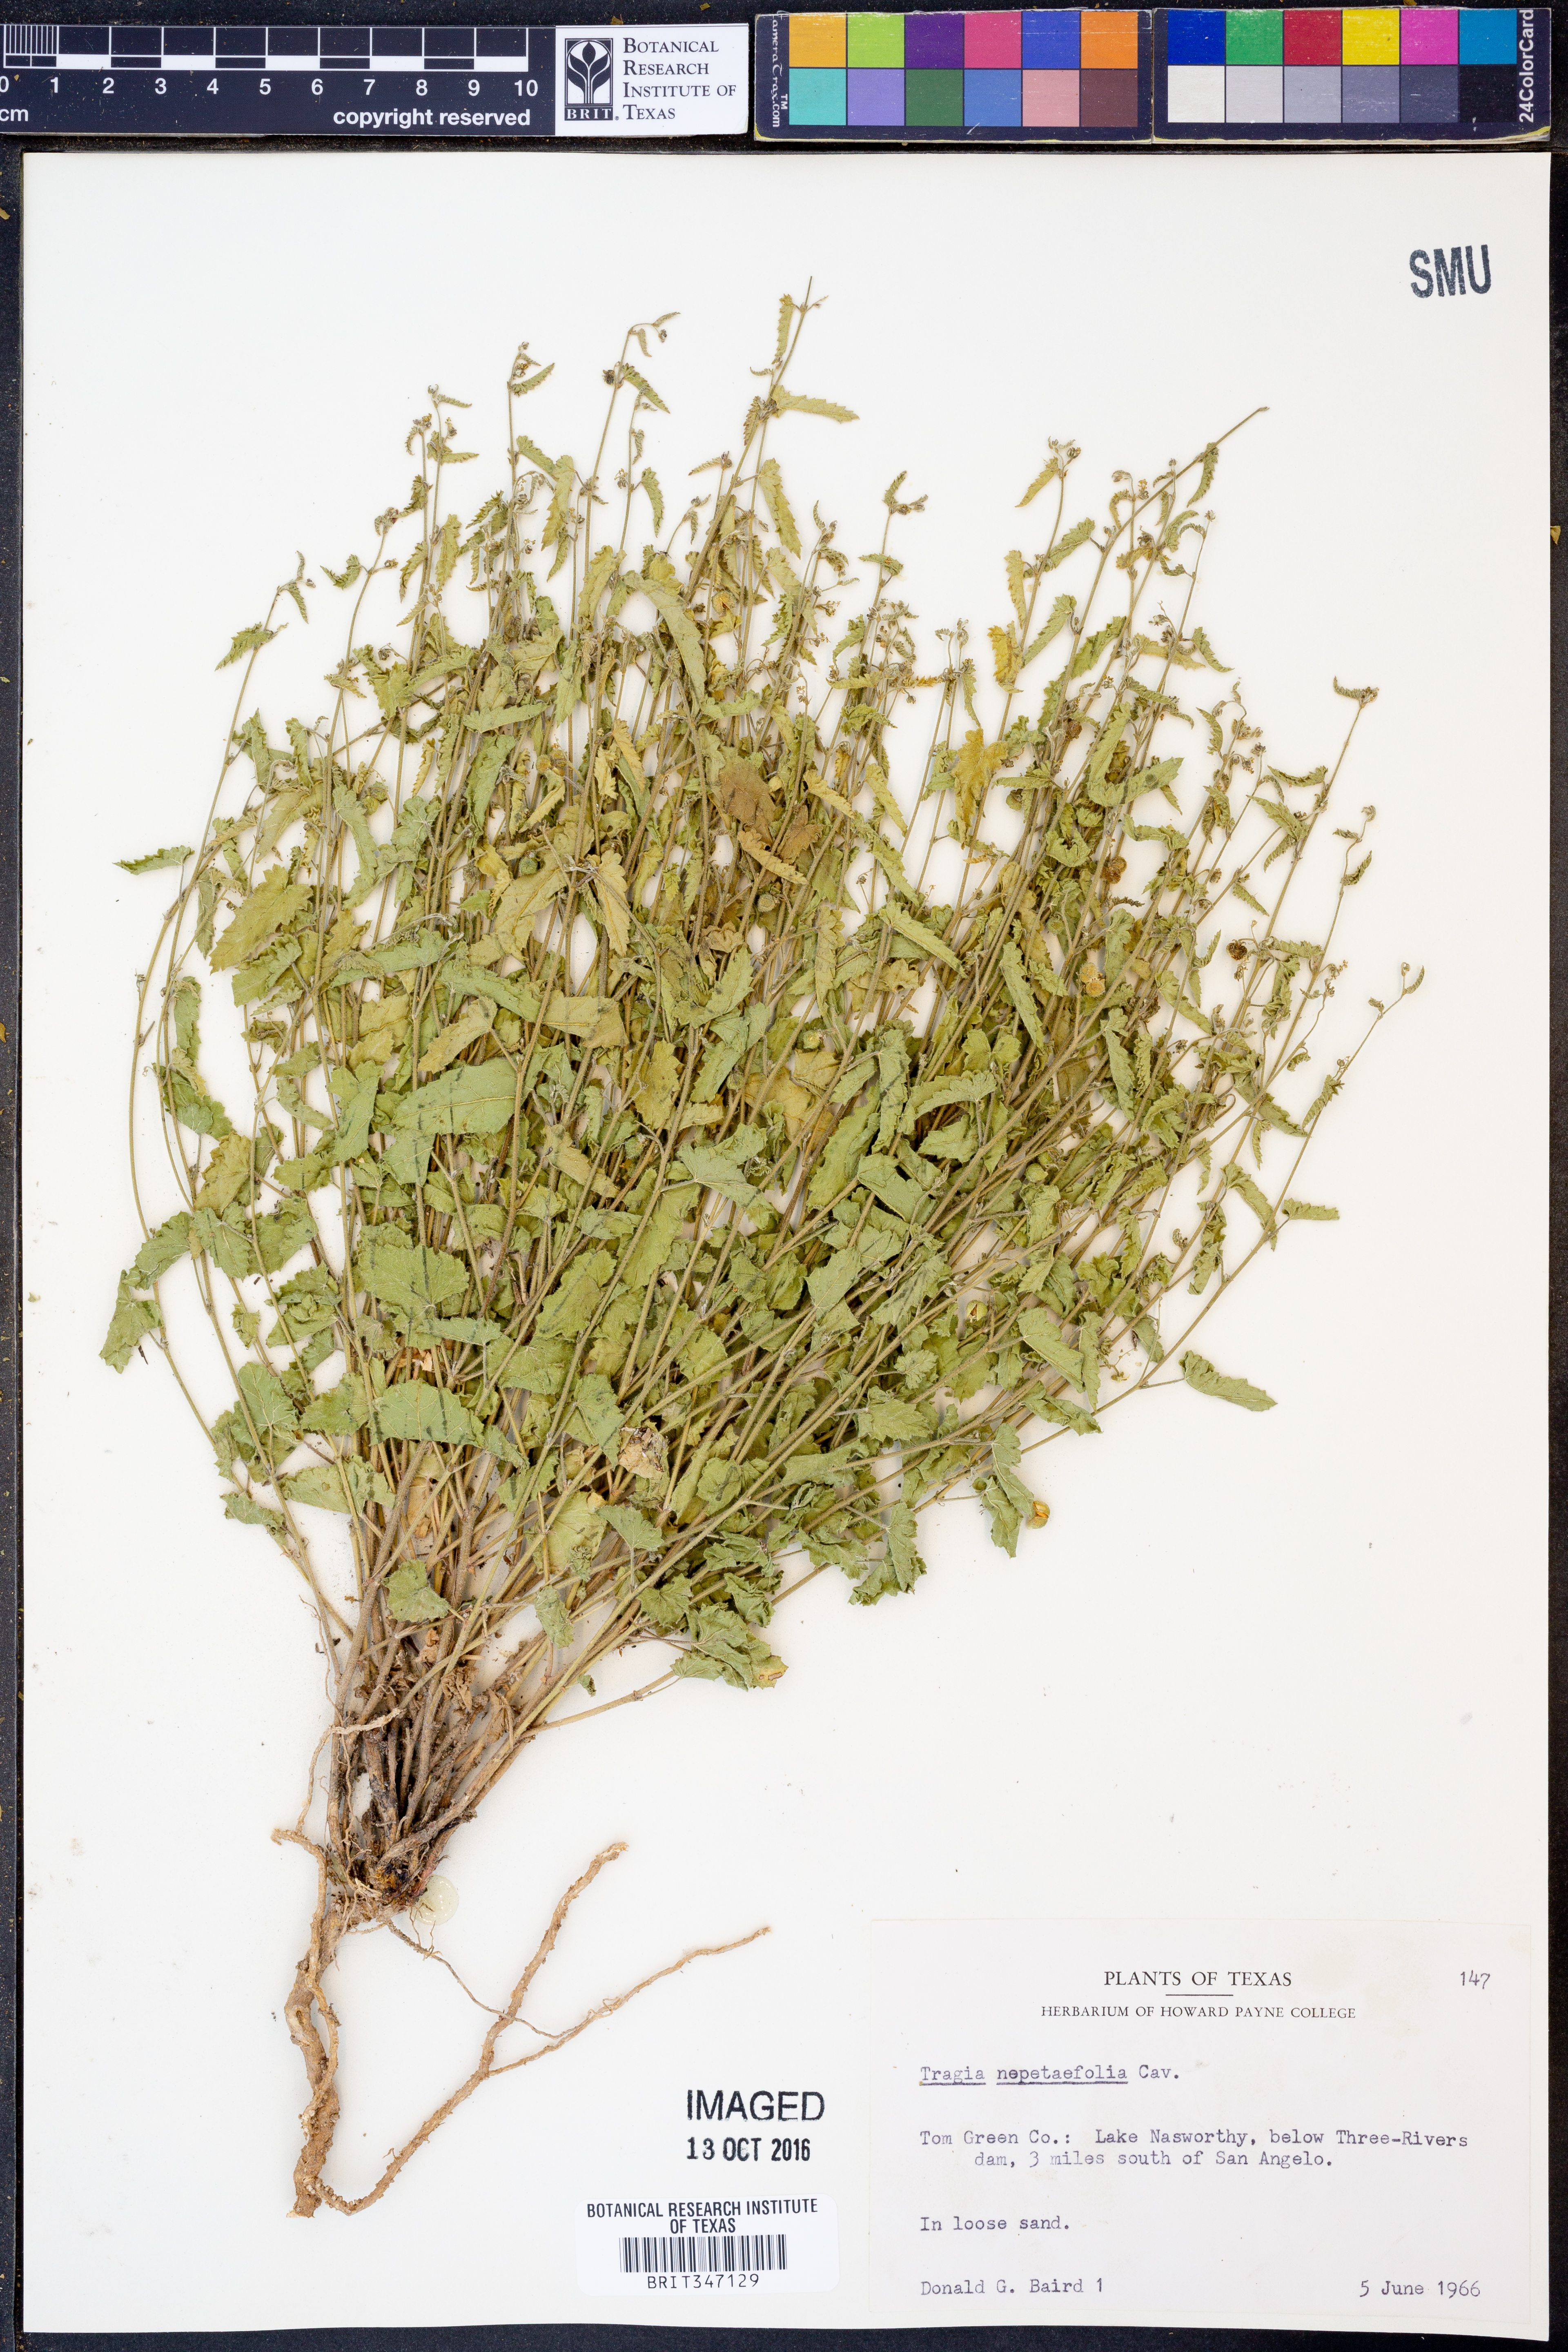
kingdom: Plantae
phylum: Tracheophyta
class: Magnoliopsida
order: Malpighiales
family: Euphorbiaceae
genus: Tragia
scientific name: Tragia bahiensis
